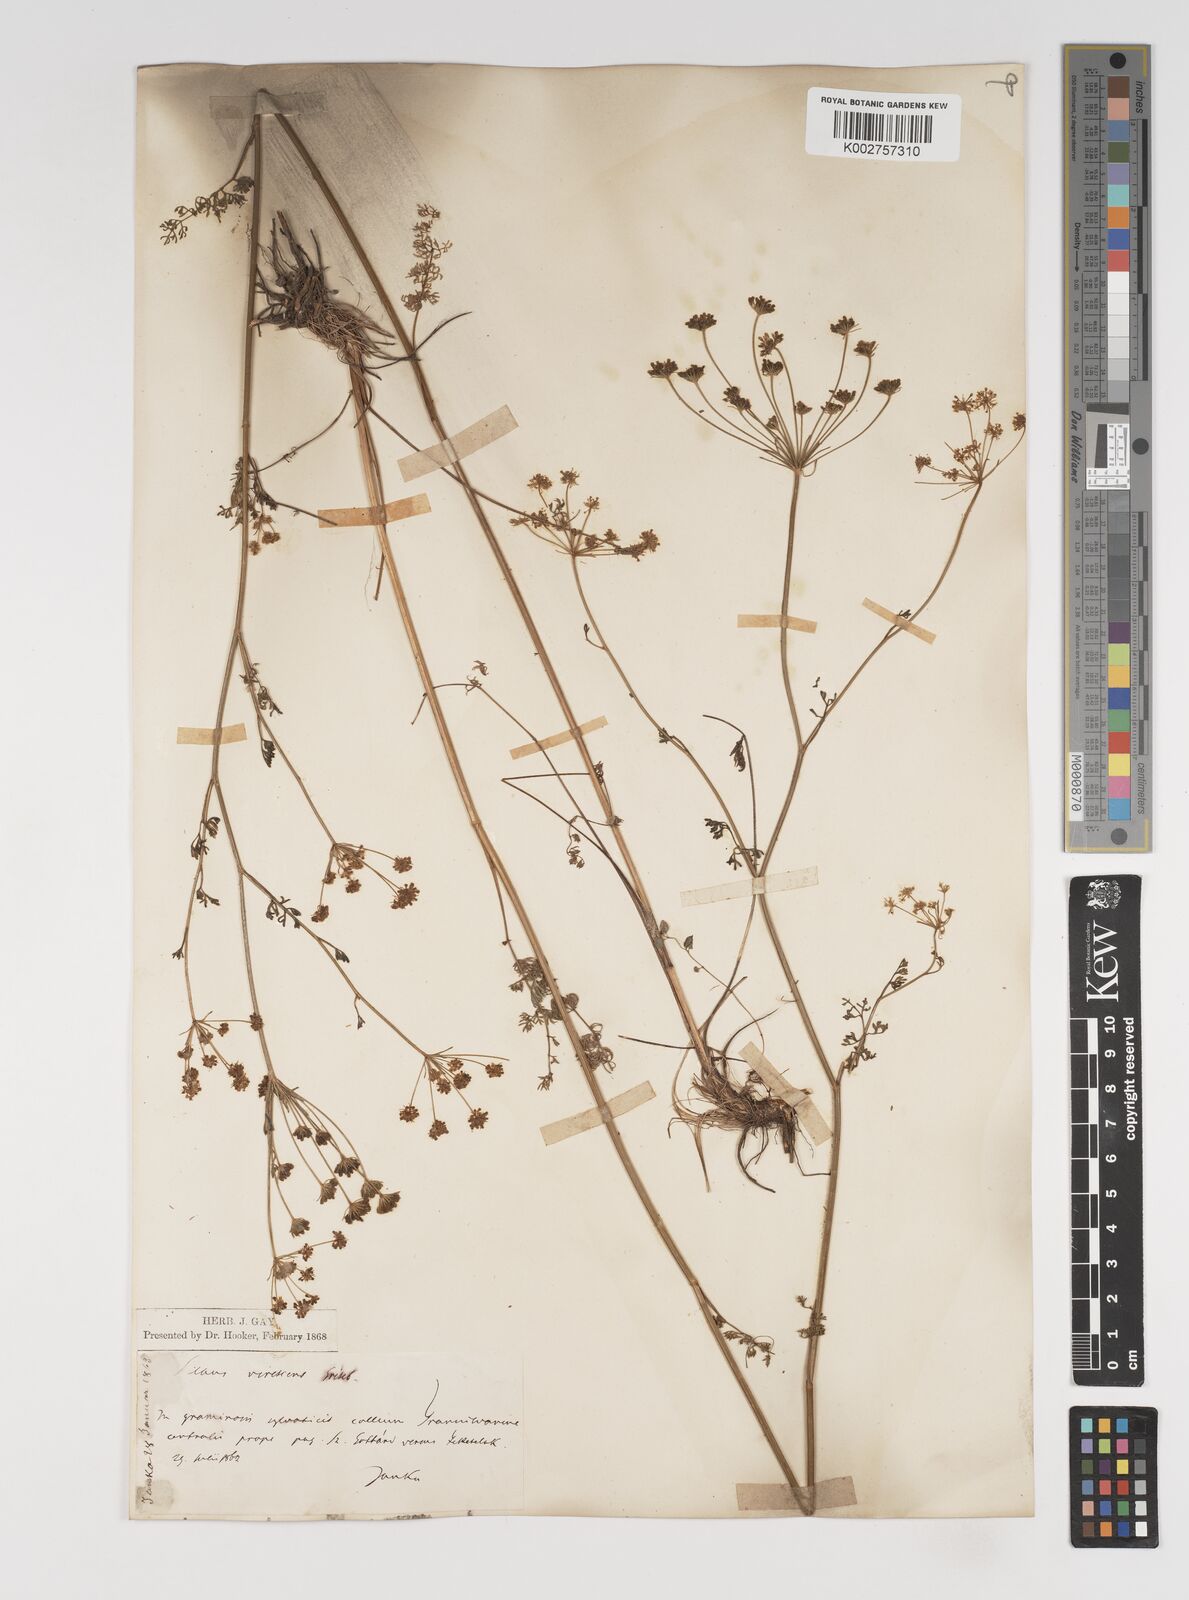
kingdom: Plantae
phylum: Tracheophyta
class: Magnoliopsida
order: Apiales
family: Apiaceae
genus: Gasparinia
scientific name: Gasparinia peucedanoides
